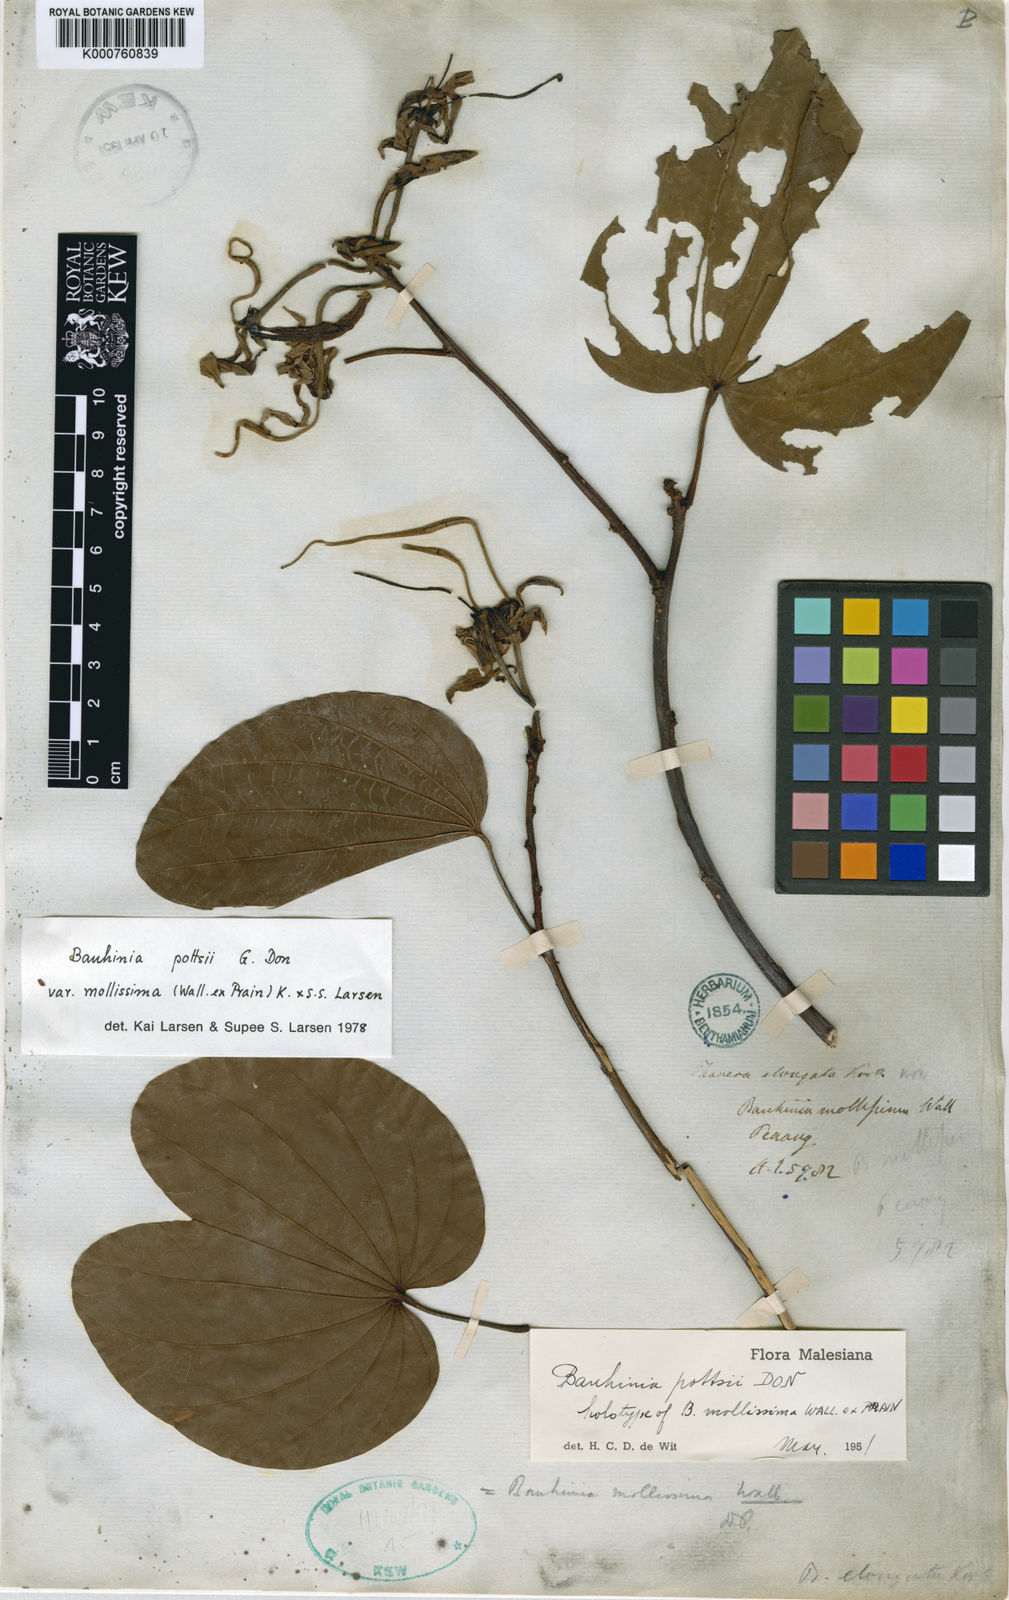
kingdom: Plantae
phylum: Tracheophyta
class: Magnoliopsida
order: Fabales
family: Fabaceae
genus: Bauhinia
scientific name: Bauhinia pottsii
